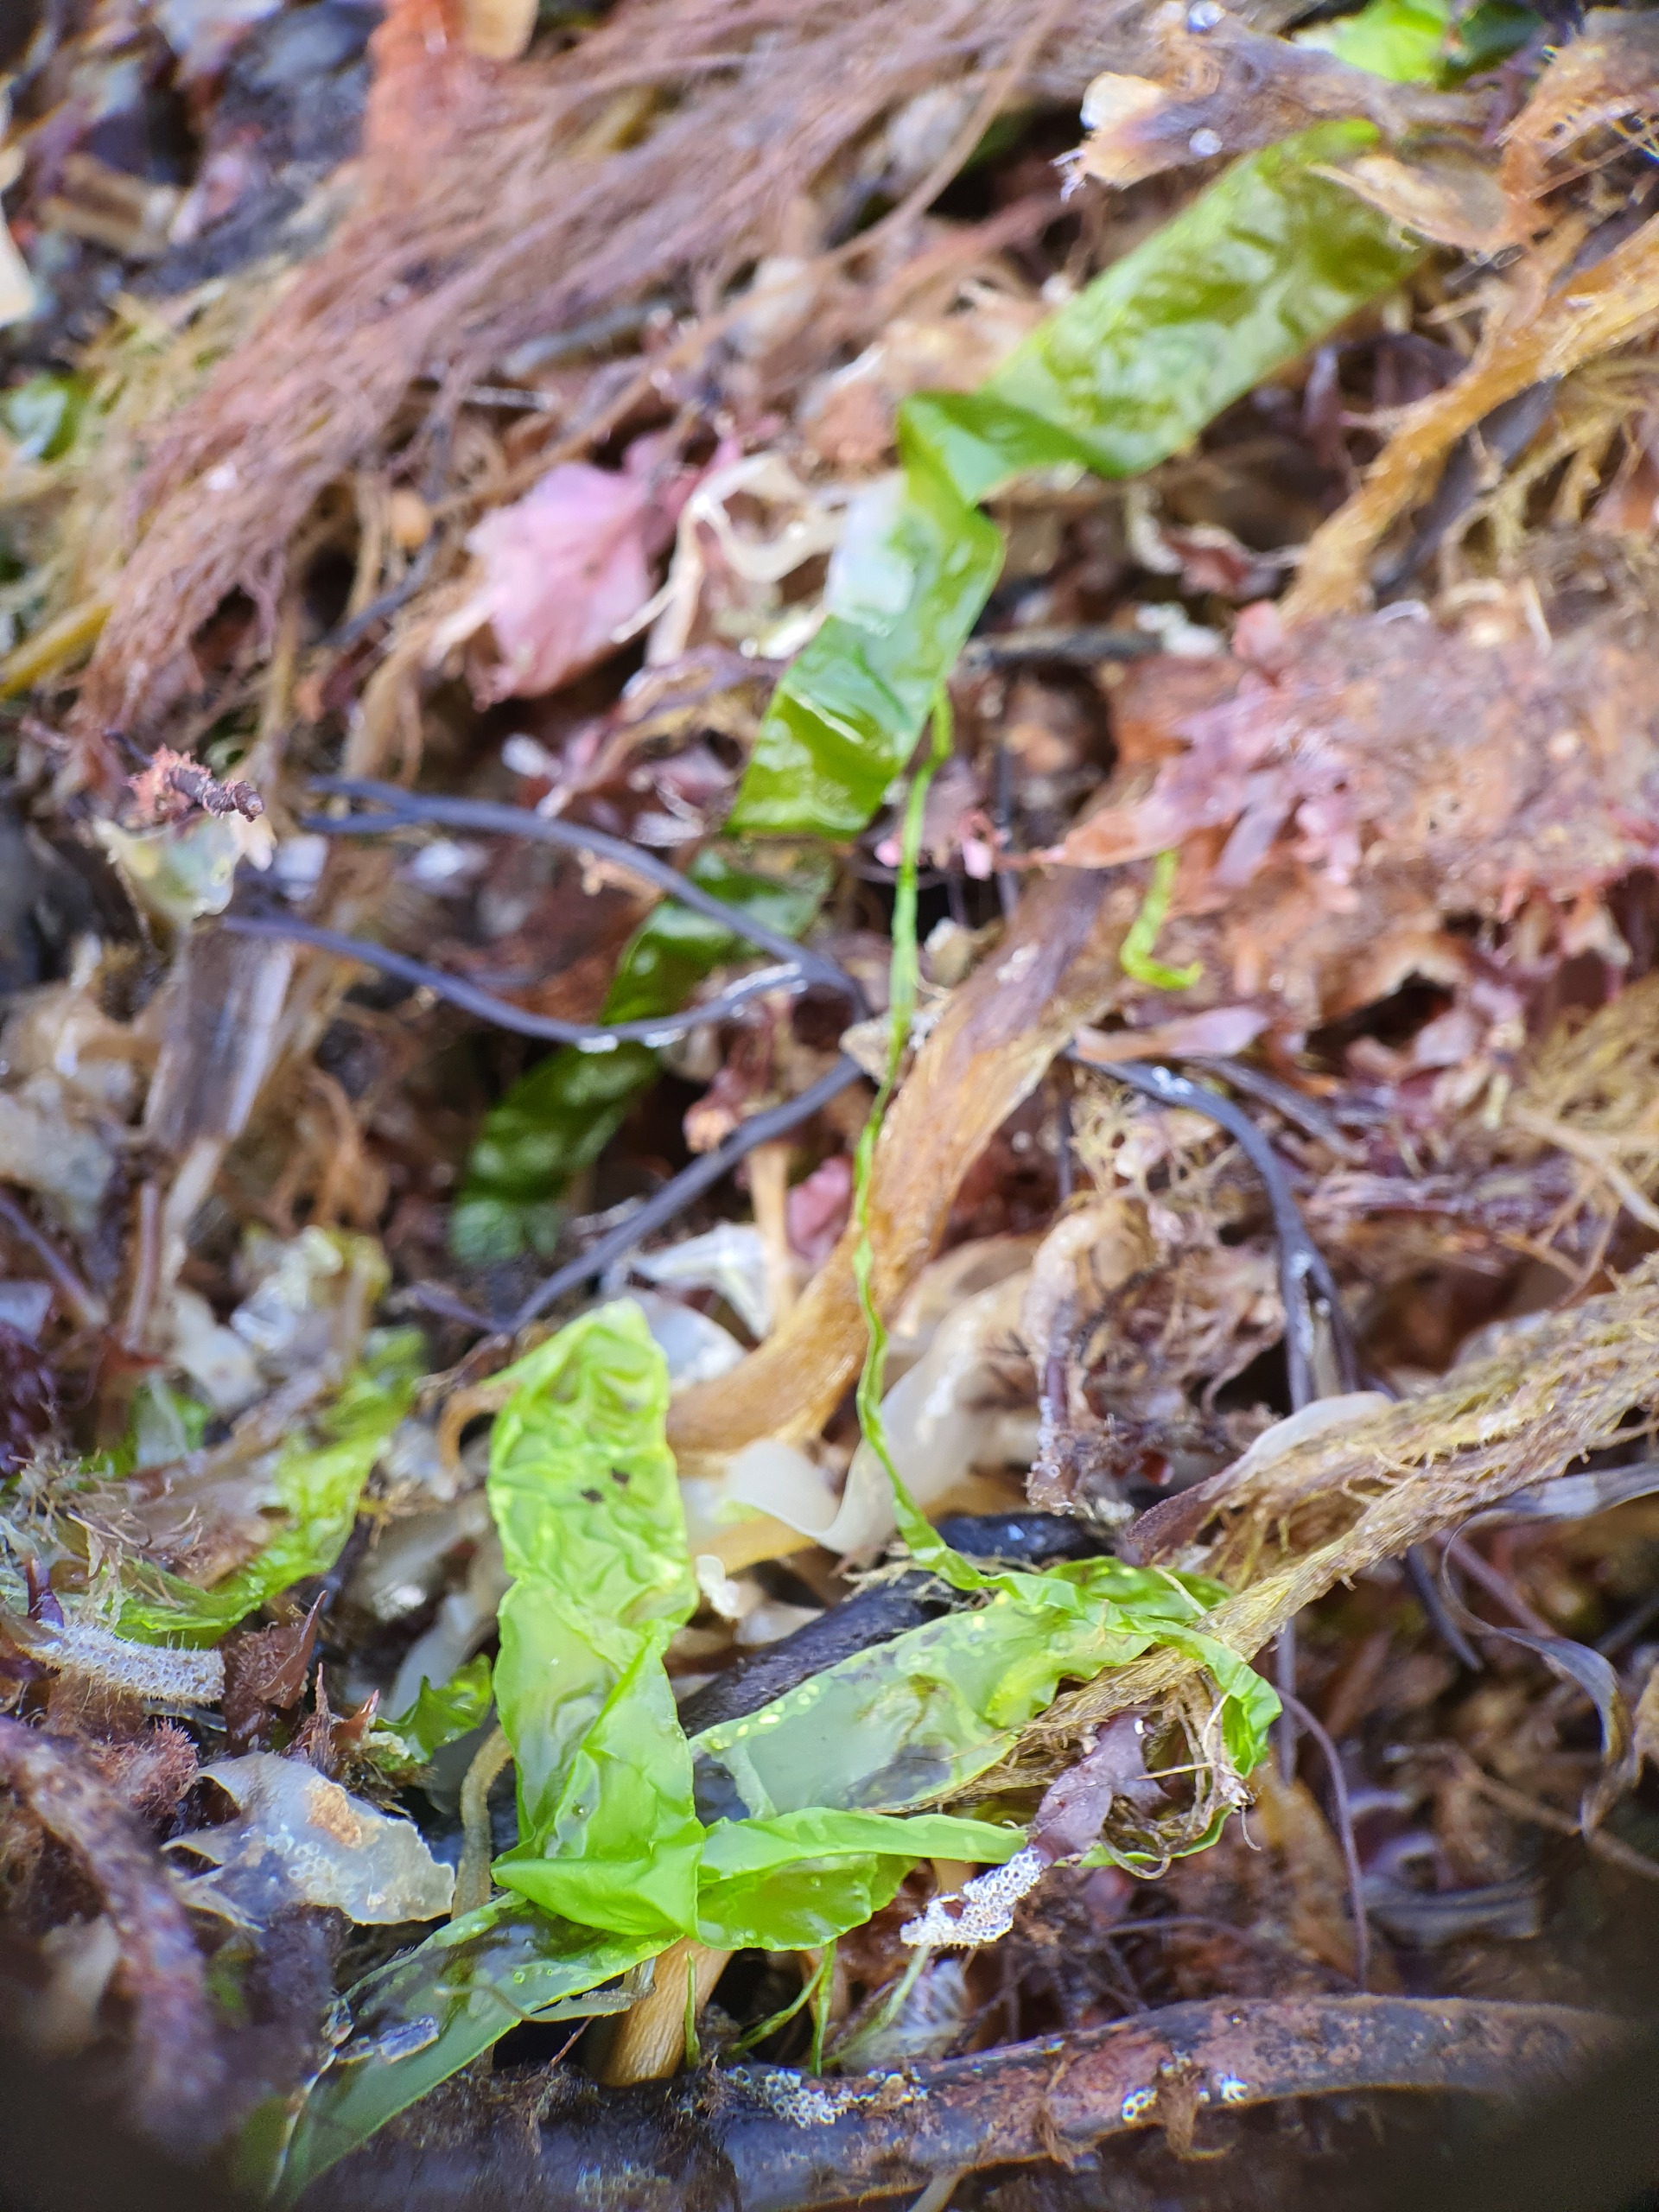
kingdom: Plantae
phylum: Chlorophyta
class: Ulvophyceae
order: Ulvales
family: Ulvaceae
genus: Ulva
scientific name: Ulva
